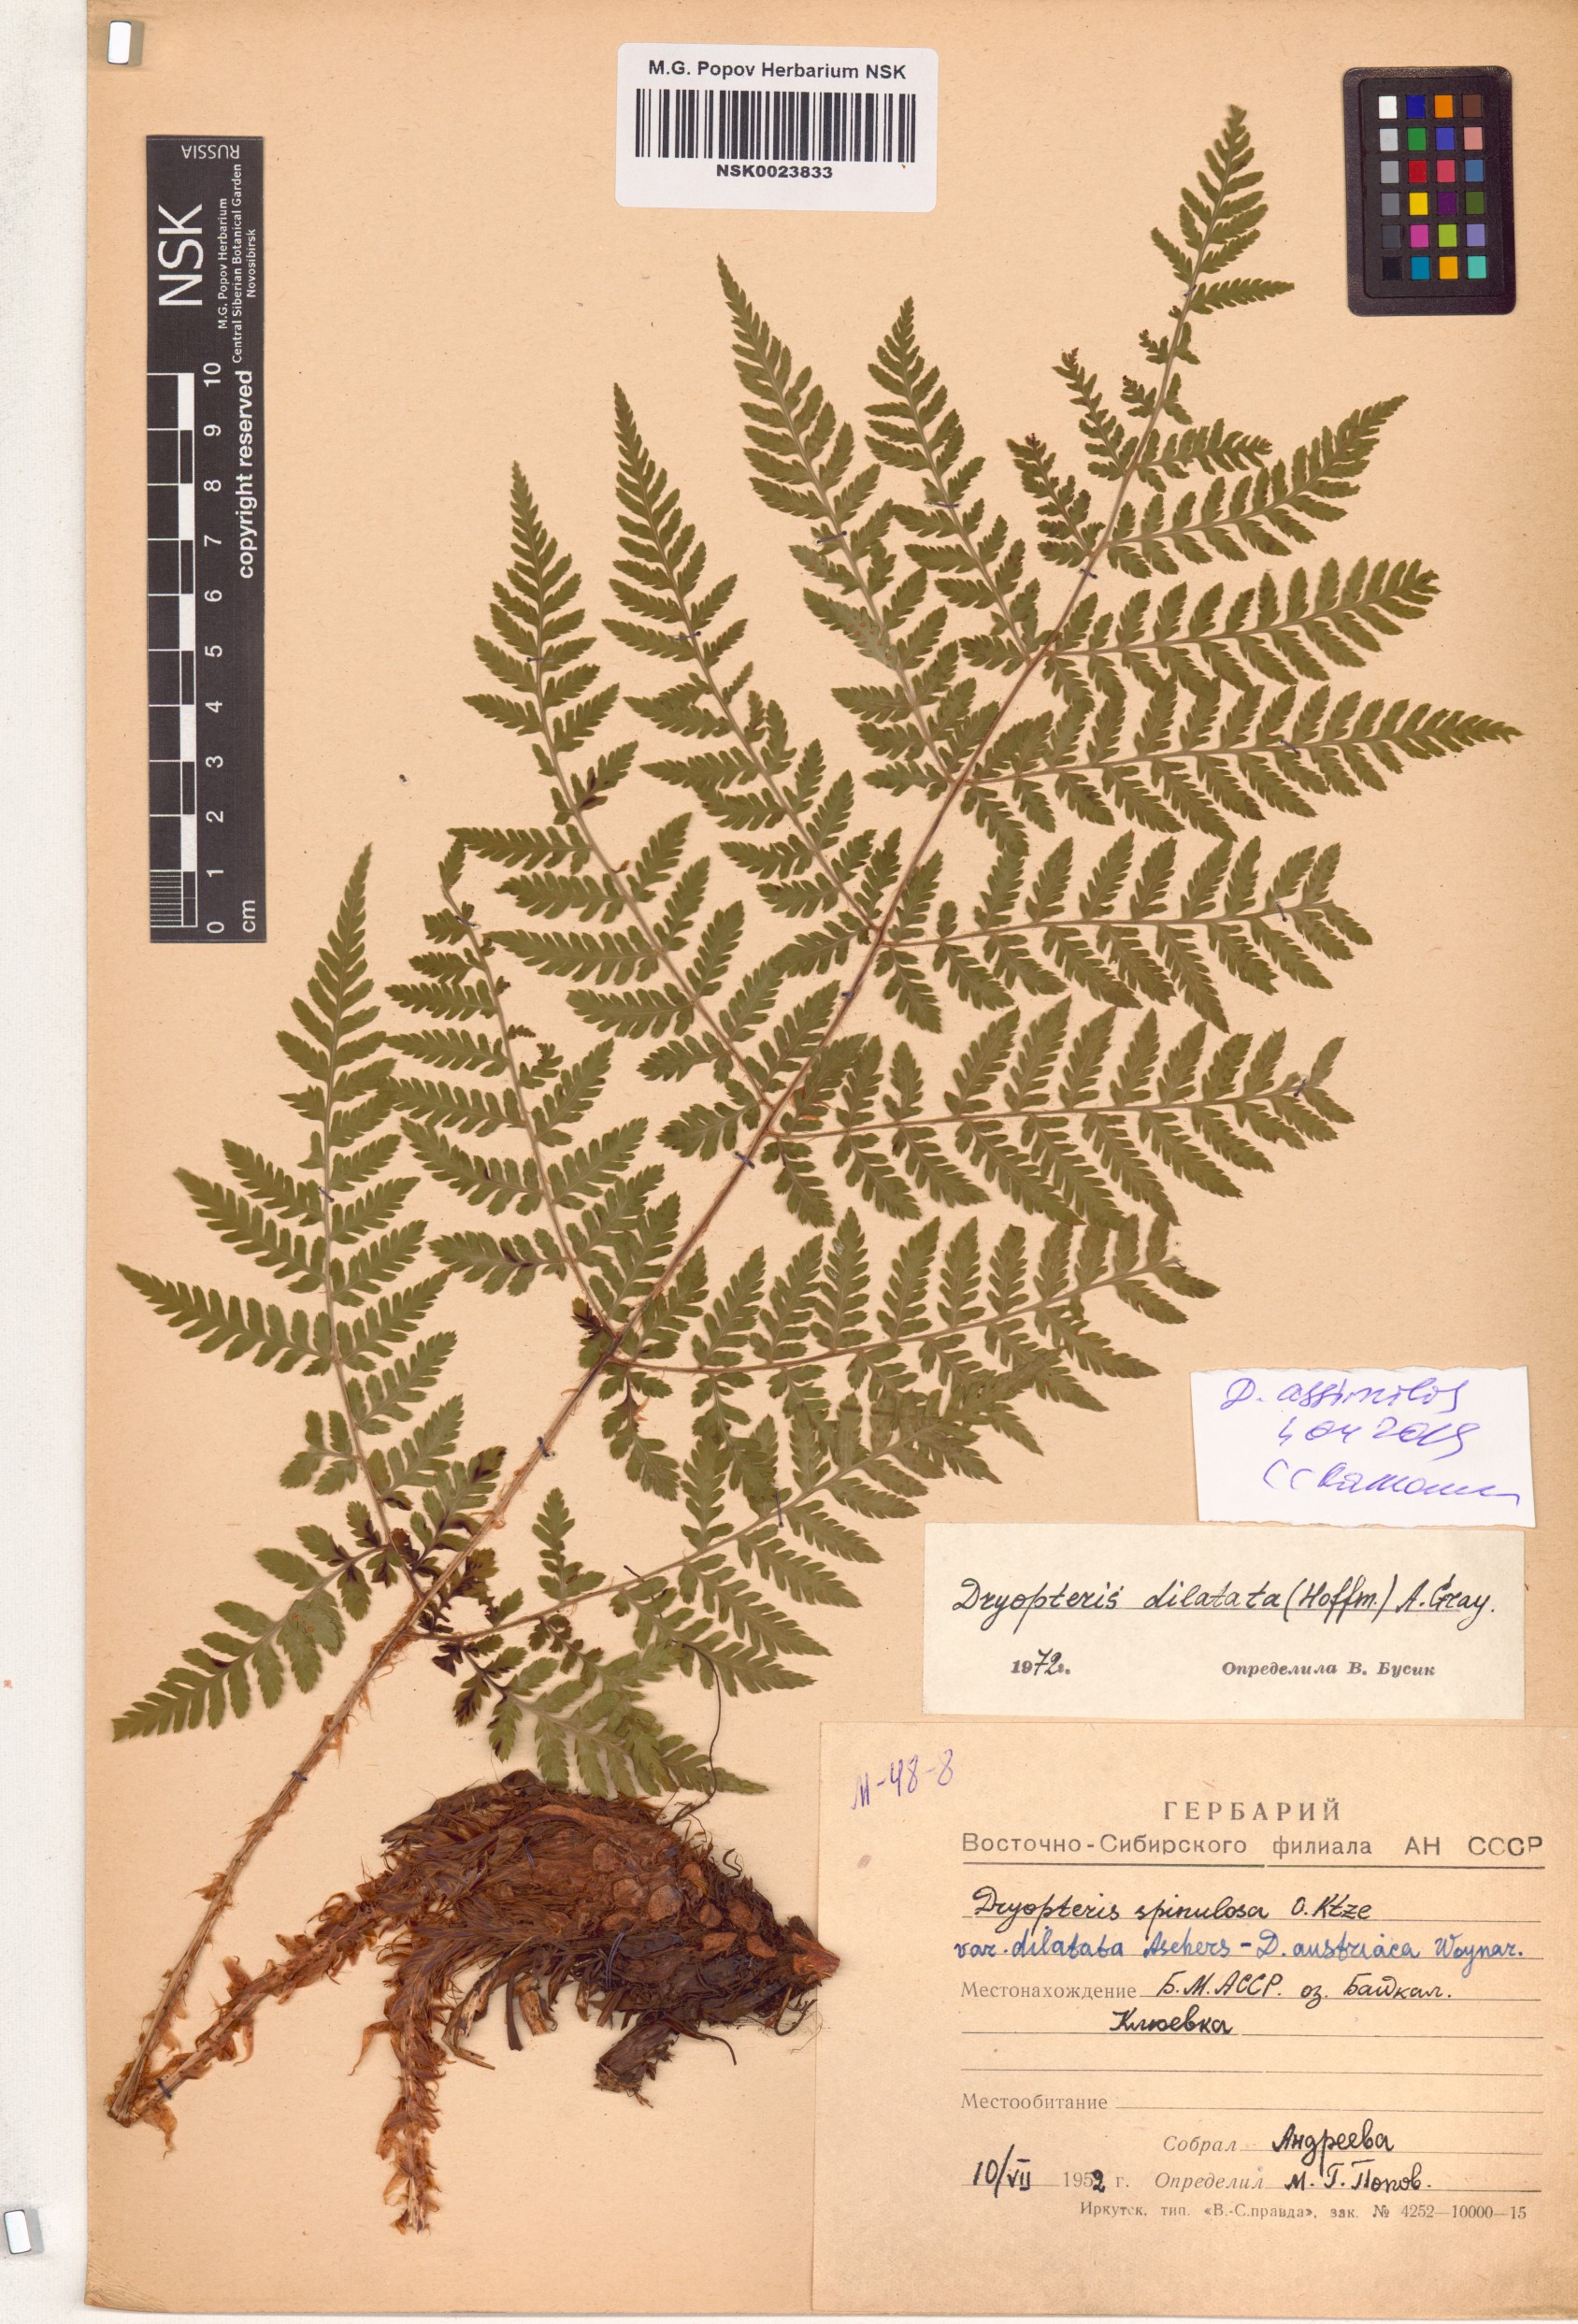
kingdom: Plantae
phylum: Tracheophyta
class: Polypodiopsida
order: Polypodiales
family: Dryopteridaceae
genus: Dryopteris
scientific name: Dryopteris expansa
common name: Northern buckler fern
